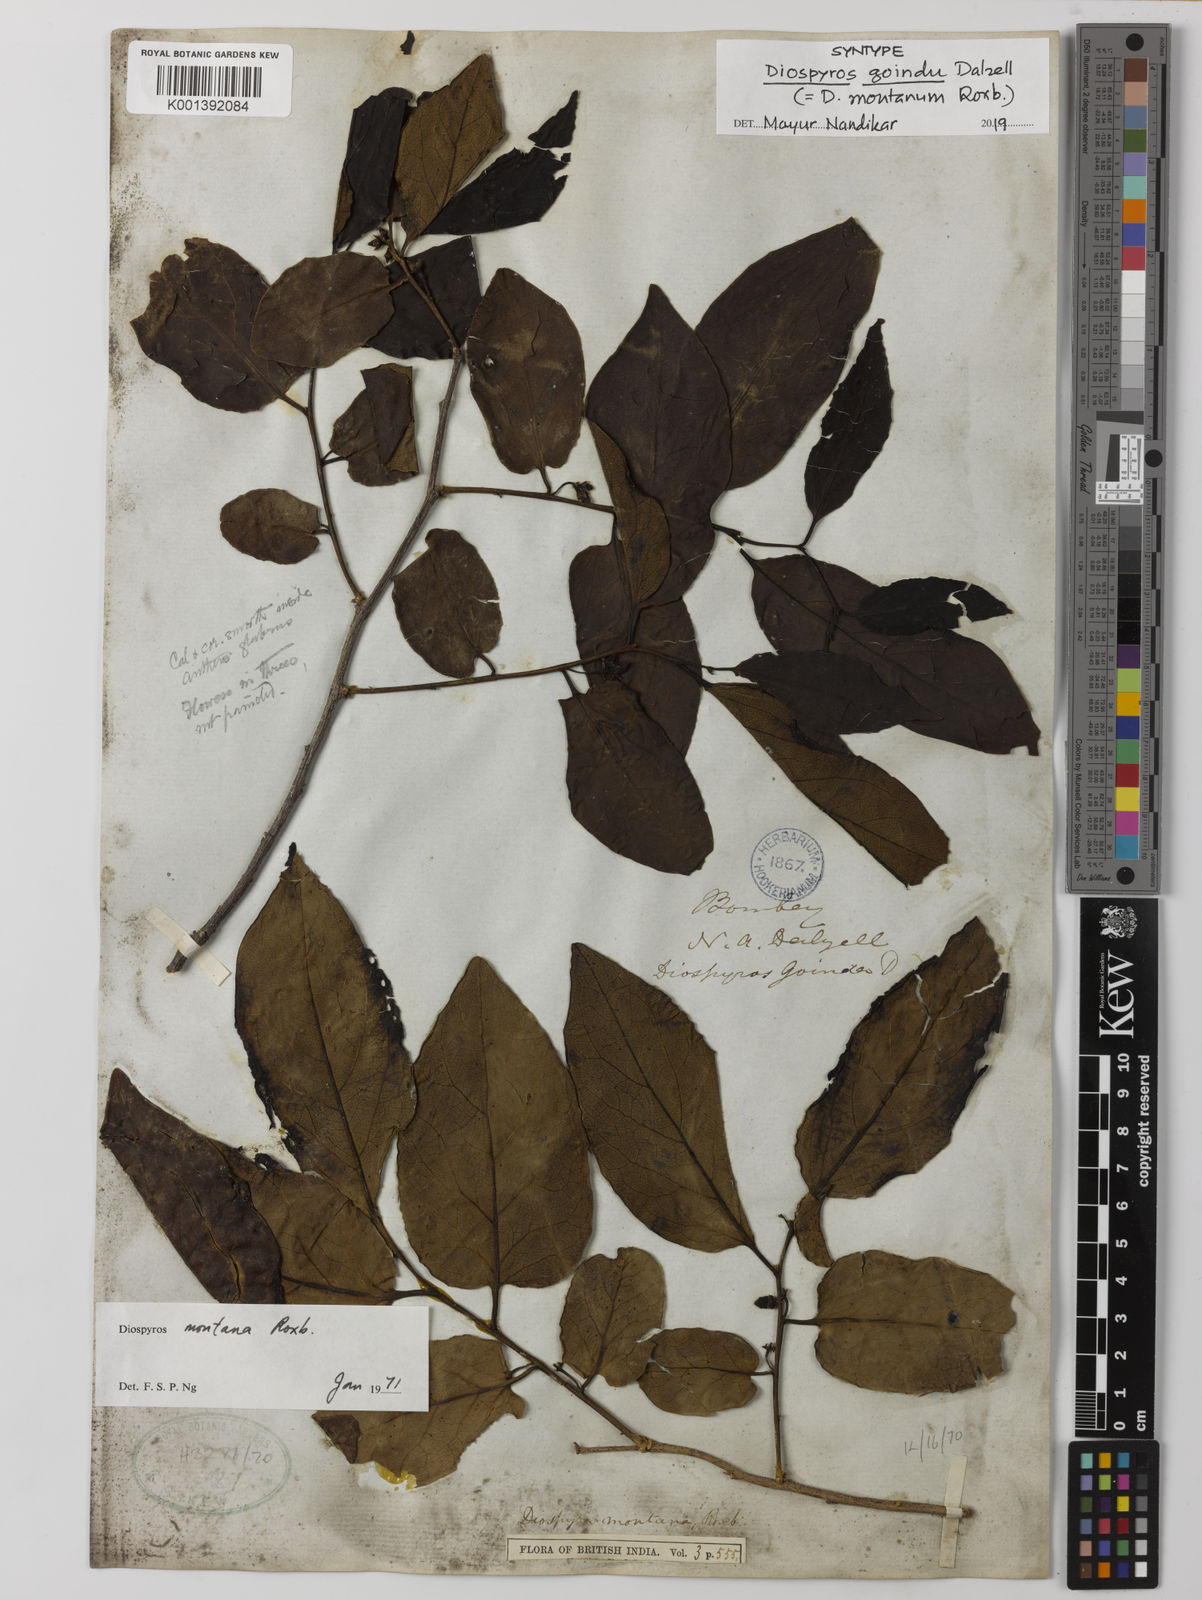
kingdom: Plantae
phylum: Tracheophyta
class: Magnoliopsida
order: Ericales
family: Ebenaceae
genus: Diospyros
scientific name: Diospyros montana
